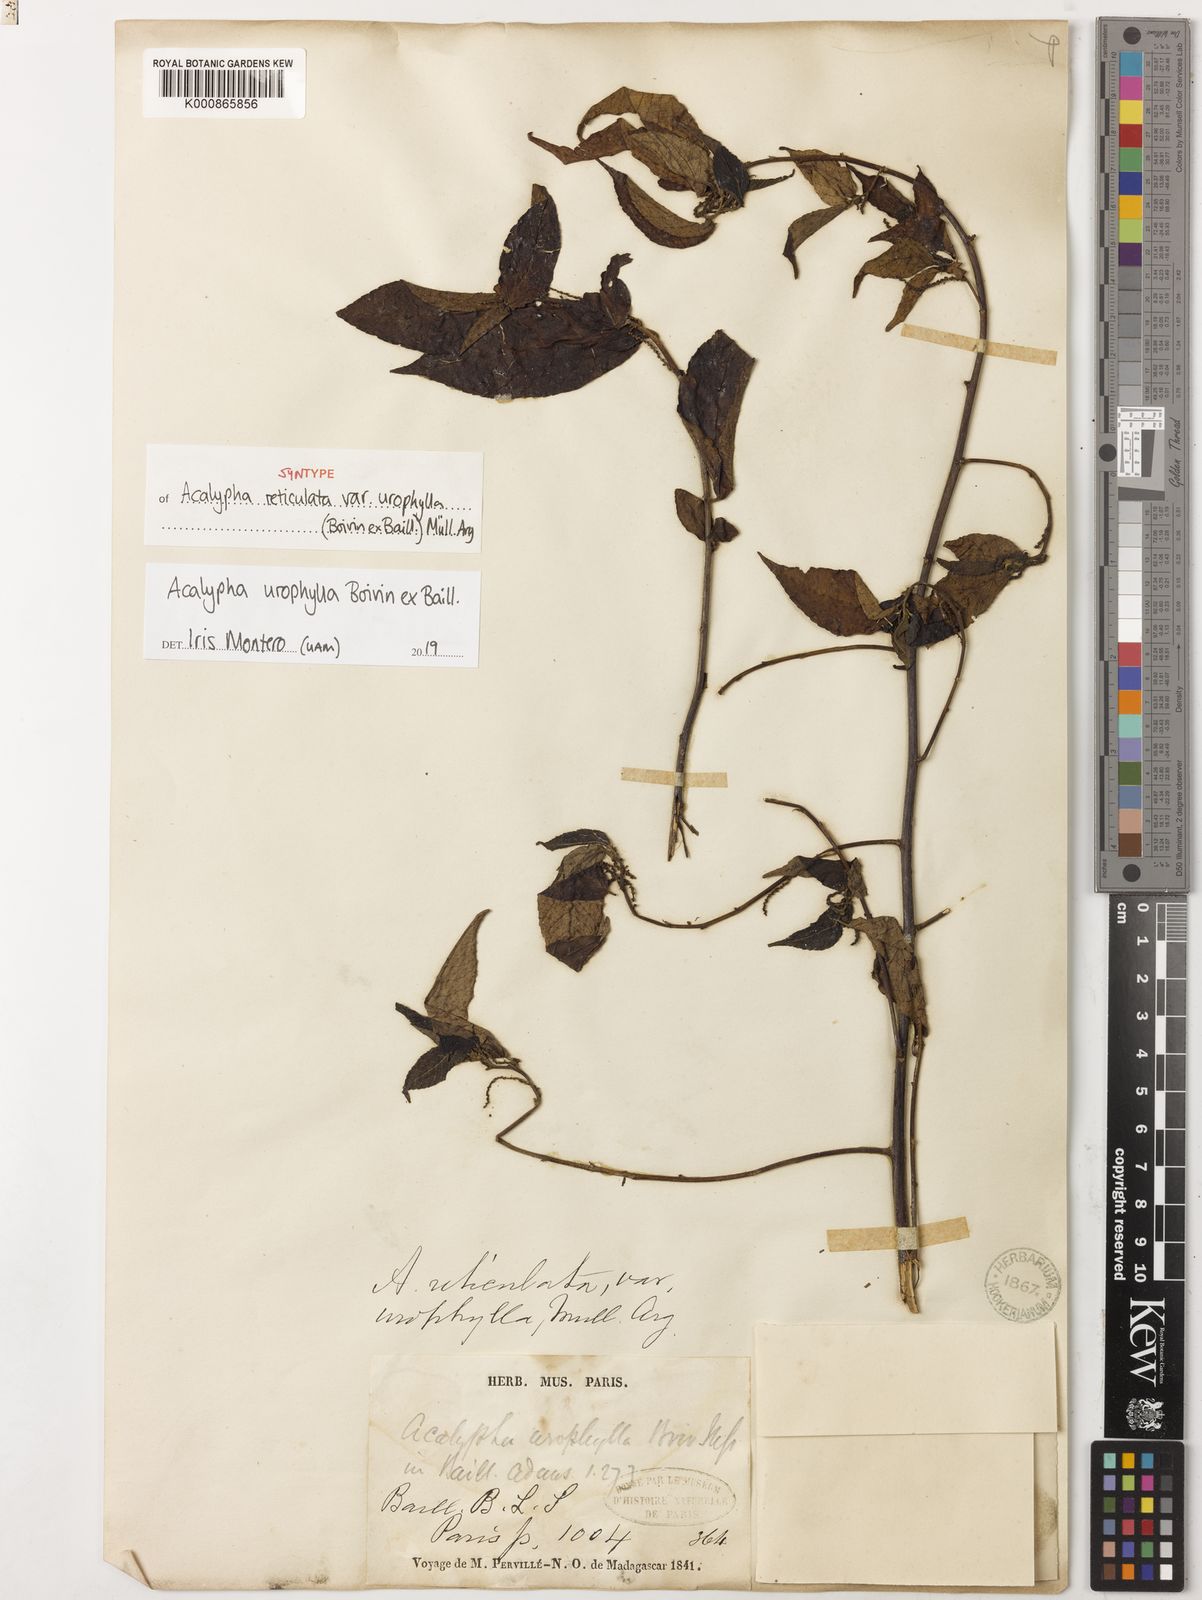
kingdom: Plantae
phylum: Tracheophyta
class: Magnoliopsida
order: Malpighiales
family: Euphorbiaceae
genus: Acalypha
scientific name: Acalypha urophylla
